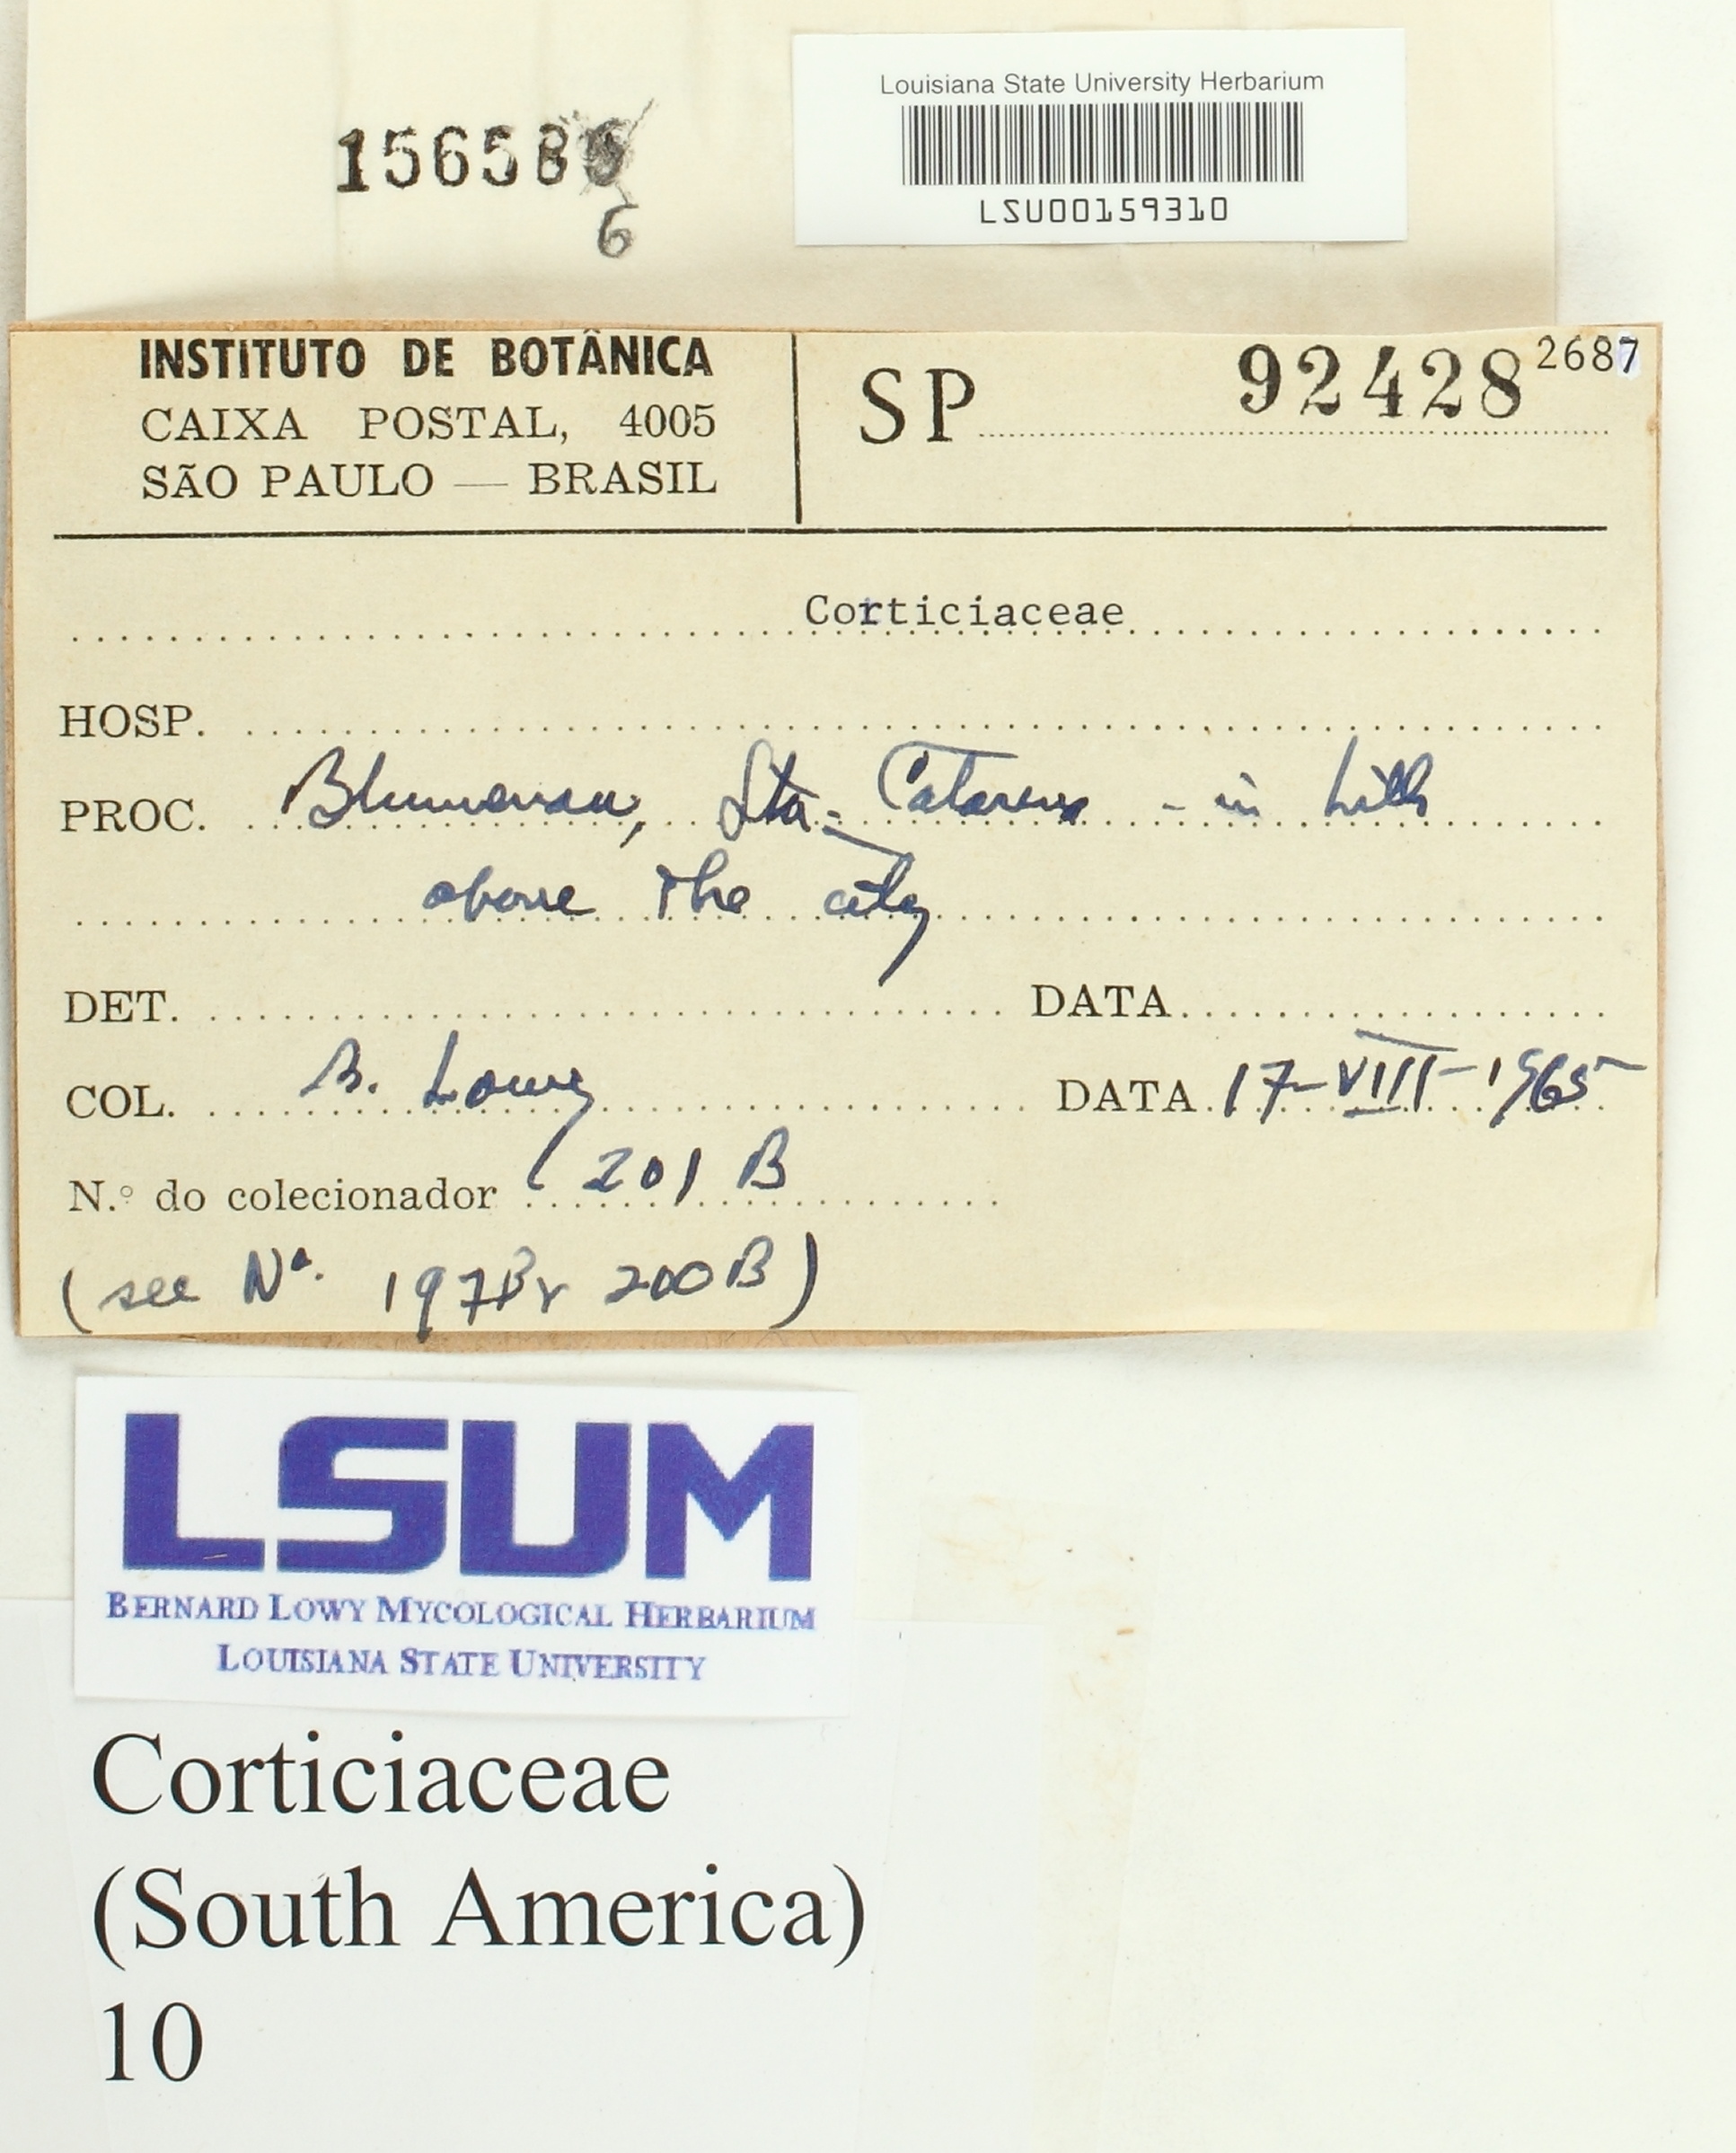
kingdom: Fungi
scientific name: Fungi
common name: Fungi
